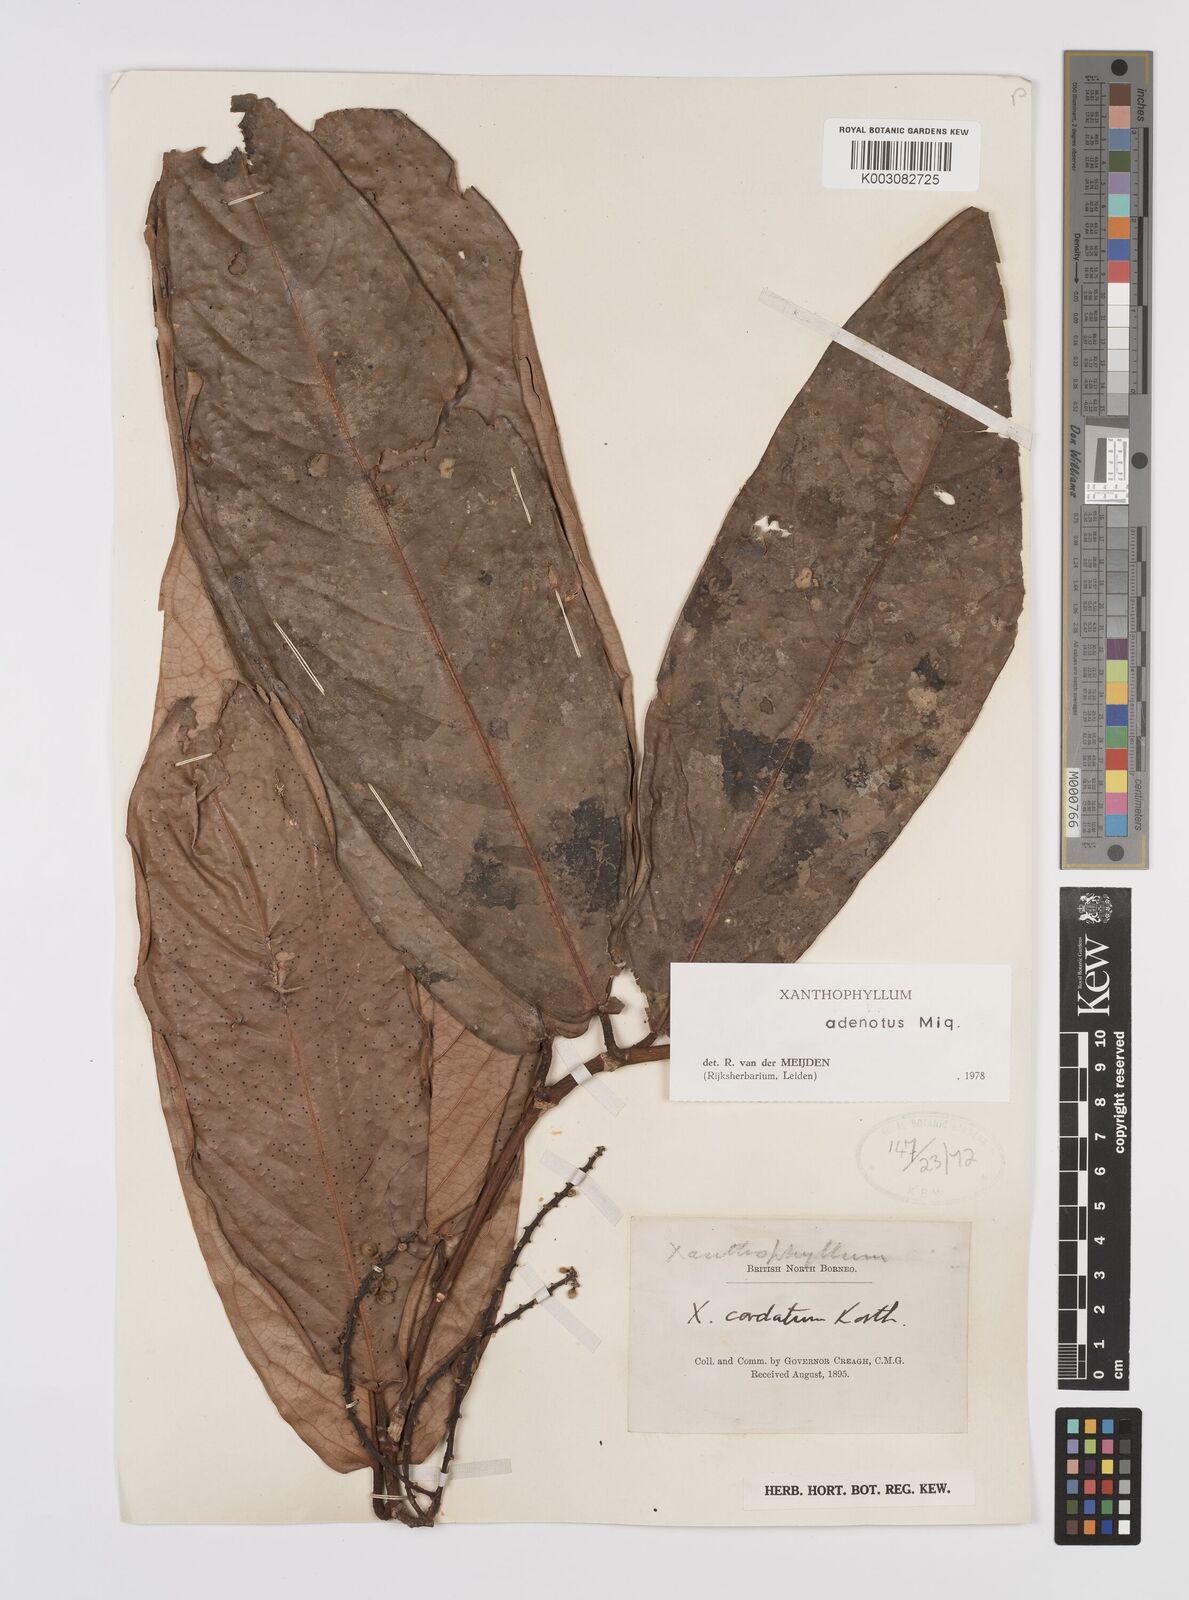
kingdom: Plantae
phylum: Tracheophyta
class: Magnoliopsida
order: Fabales
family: Polygalaceae
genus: Xanthophyllum
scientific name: Xanthophyllum adenotus
